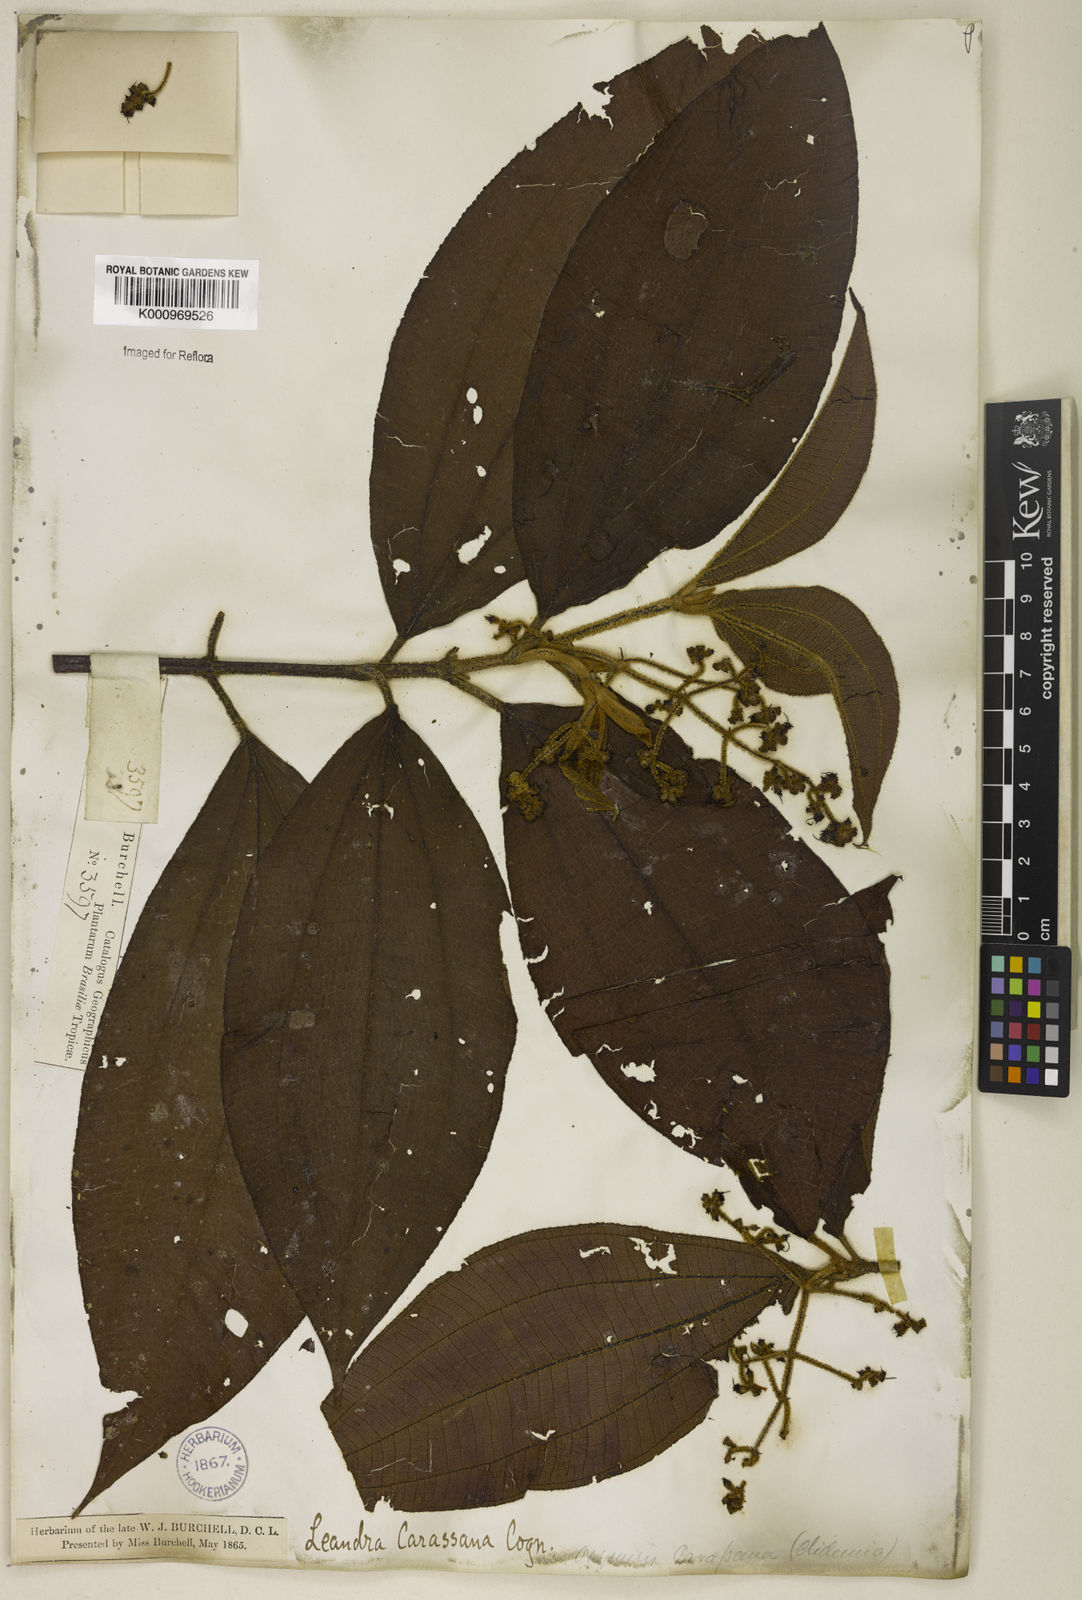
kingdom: Plantae
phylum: Tracheophyta
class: Magnoliopsida
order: Myrtales
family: Melastomataceae
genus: Miconia
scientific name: Miconia sublanata
